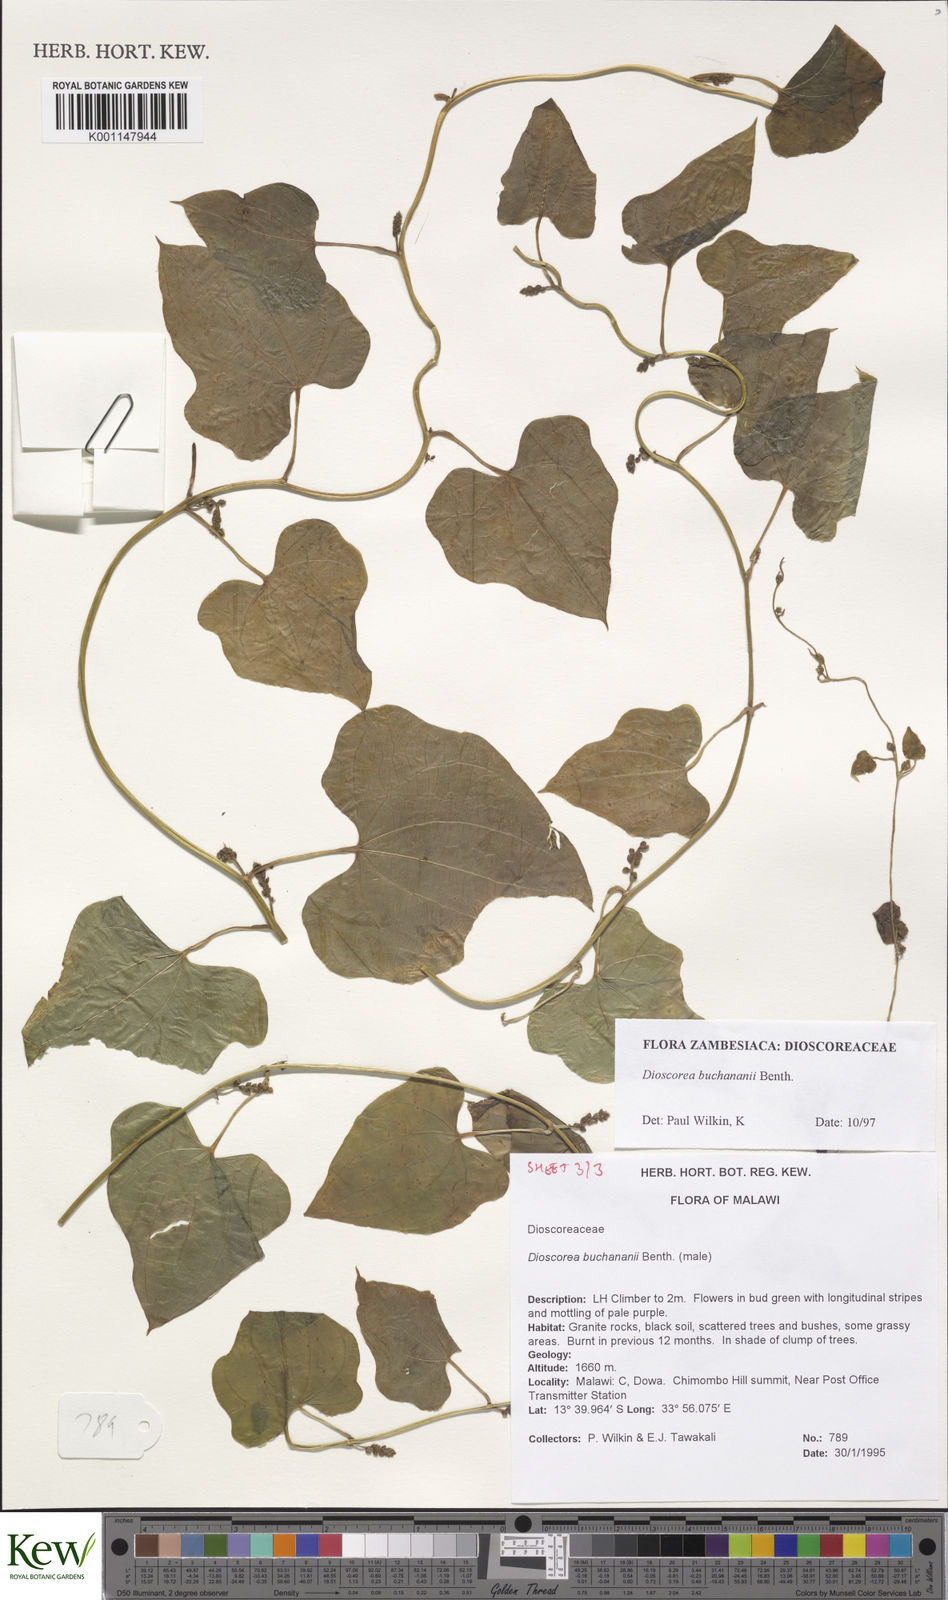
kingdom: Plantae
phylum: Tracheophyta
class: Liliopsida
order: Dioscoreales
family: Dioscoreaceae
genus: Dioscorea
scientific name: Dioscorea buchananii
